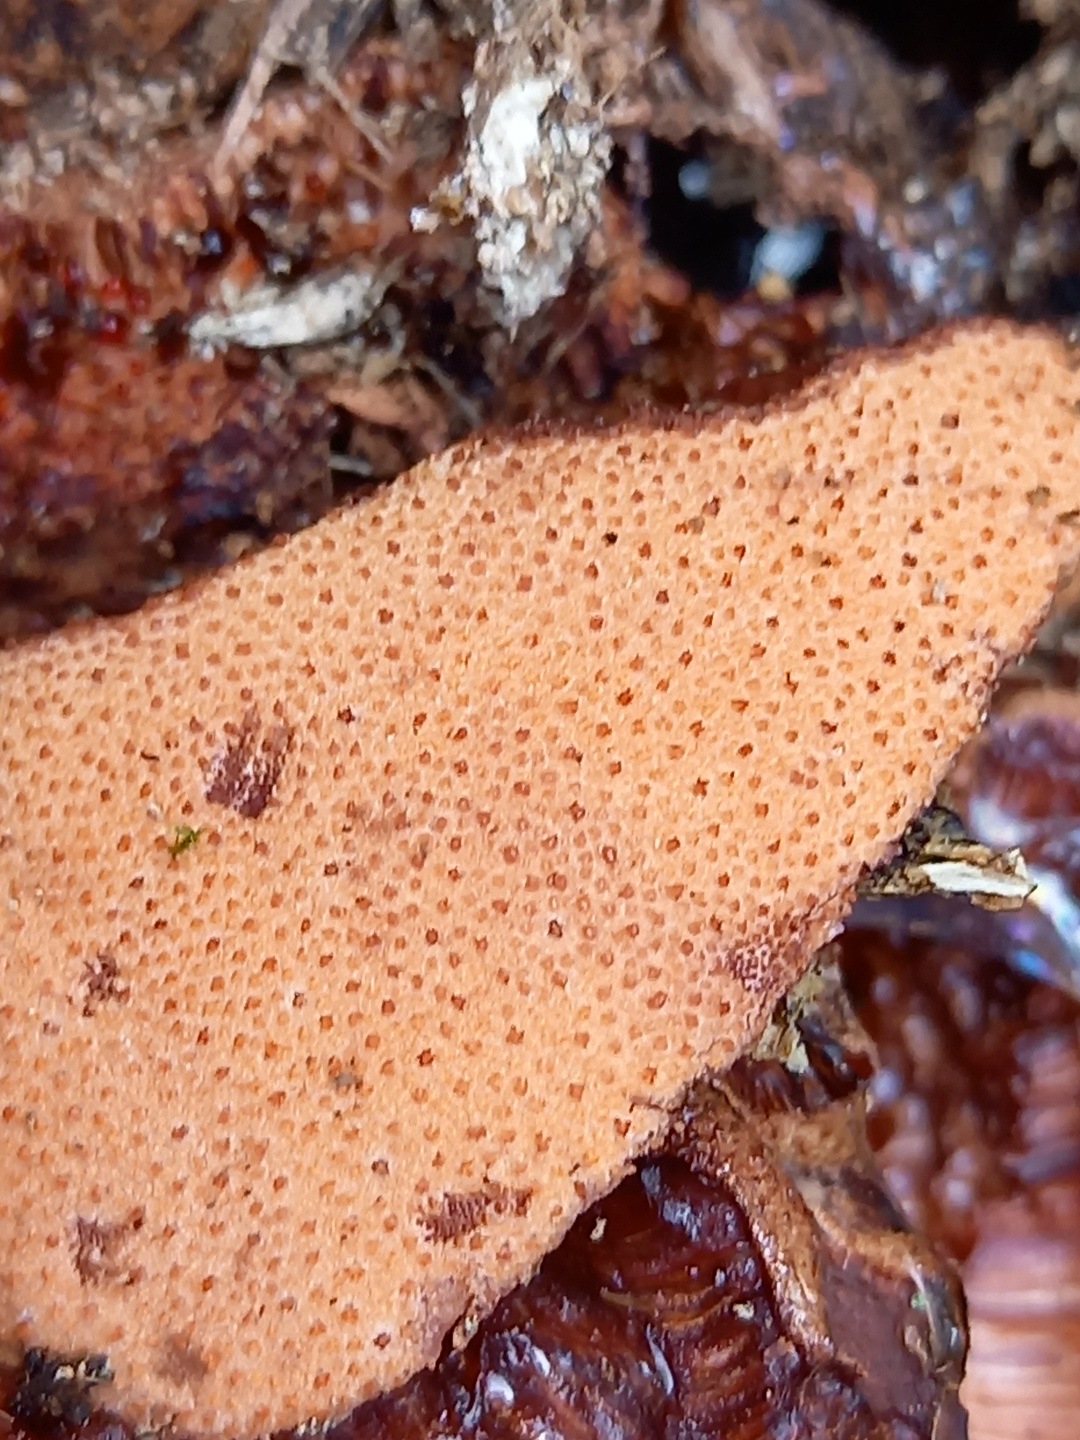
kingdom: Fungi
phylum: Basidiomycota
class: Agaricomycetes
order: Agaricales
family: Fistulinaceae
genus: Fistulina
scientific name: Fistulina hepatica
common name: oksetunge
